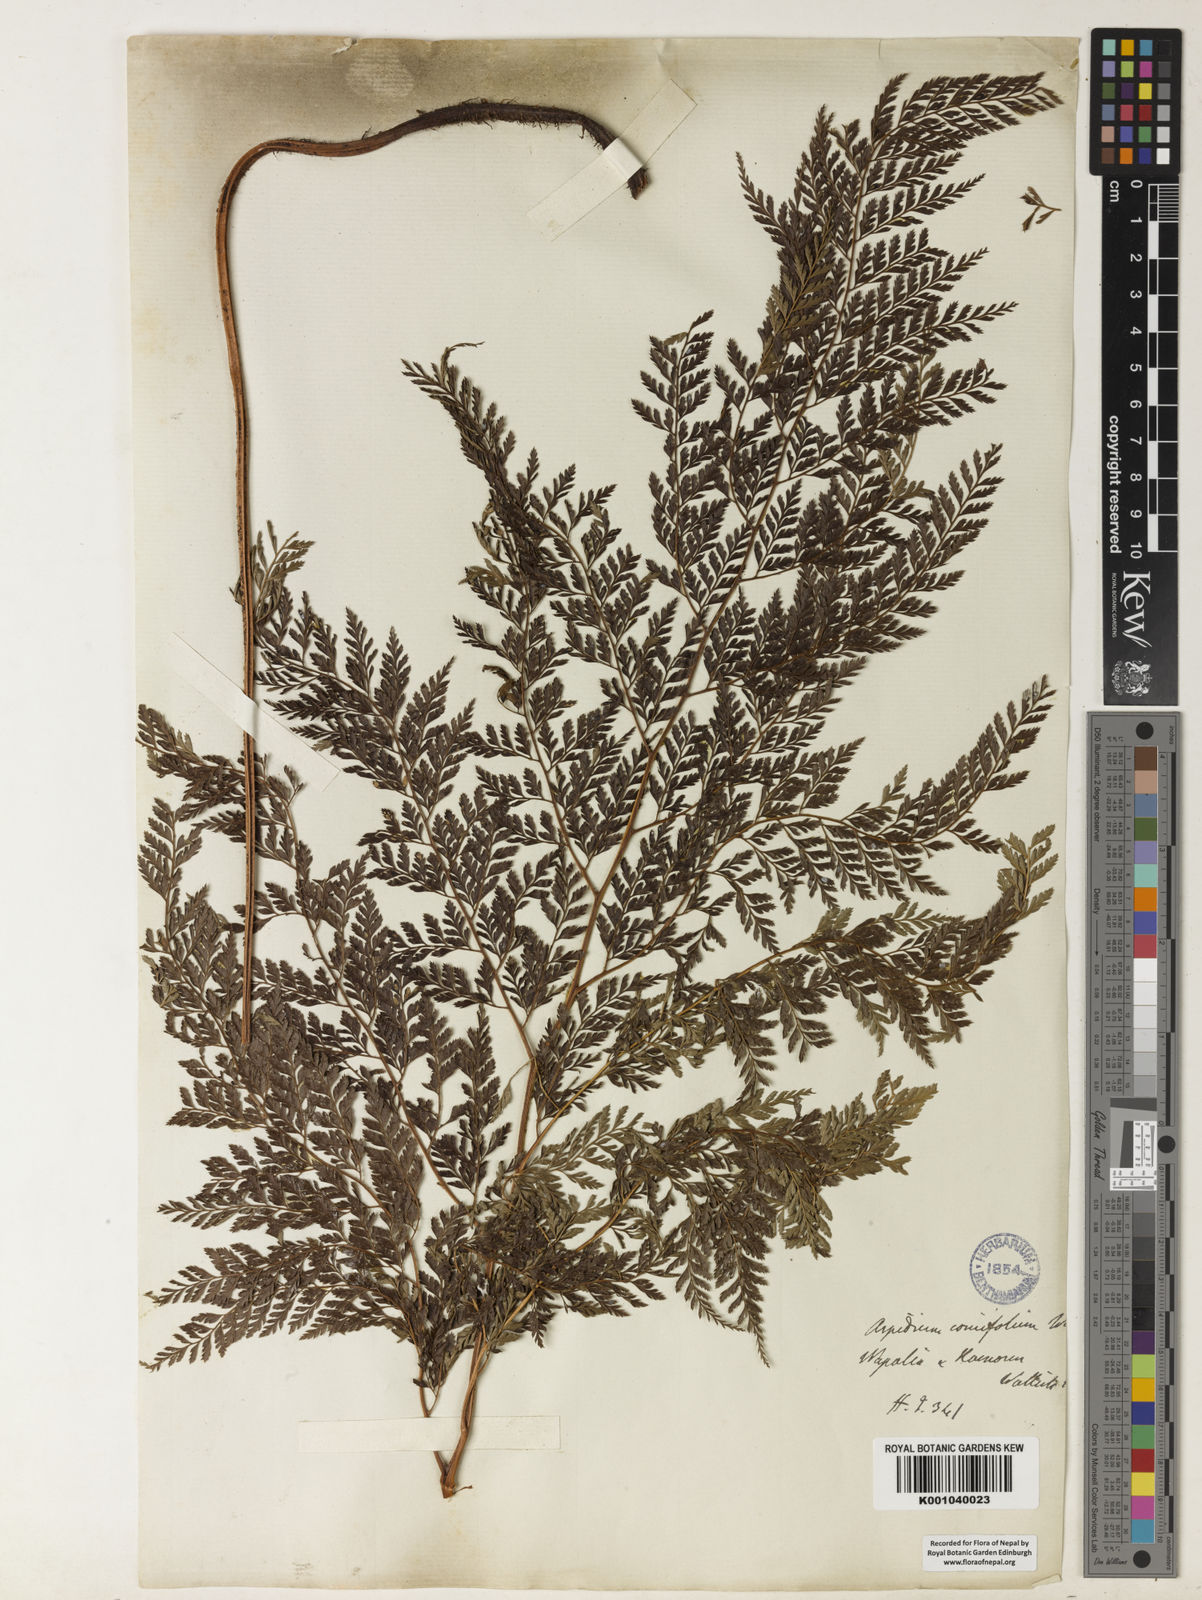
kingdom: Plantae
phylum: Tracheophyta
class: Polypodiopsida
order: Polypodiales
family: Dryopteridaceae
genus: Arachniodes
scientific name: Arachniodes coniifolia
